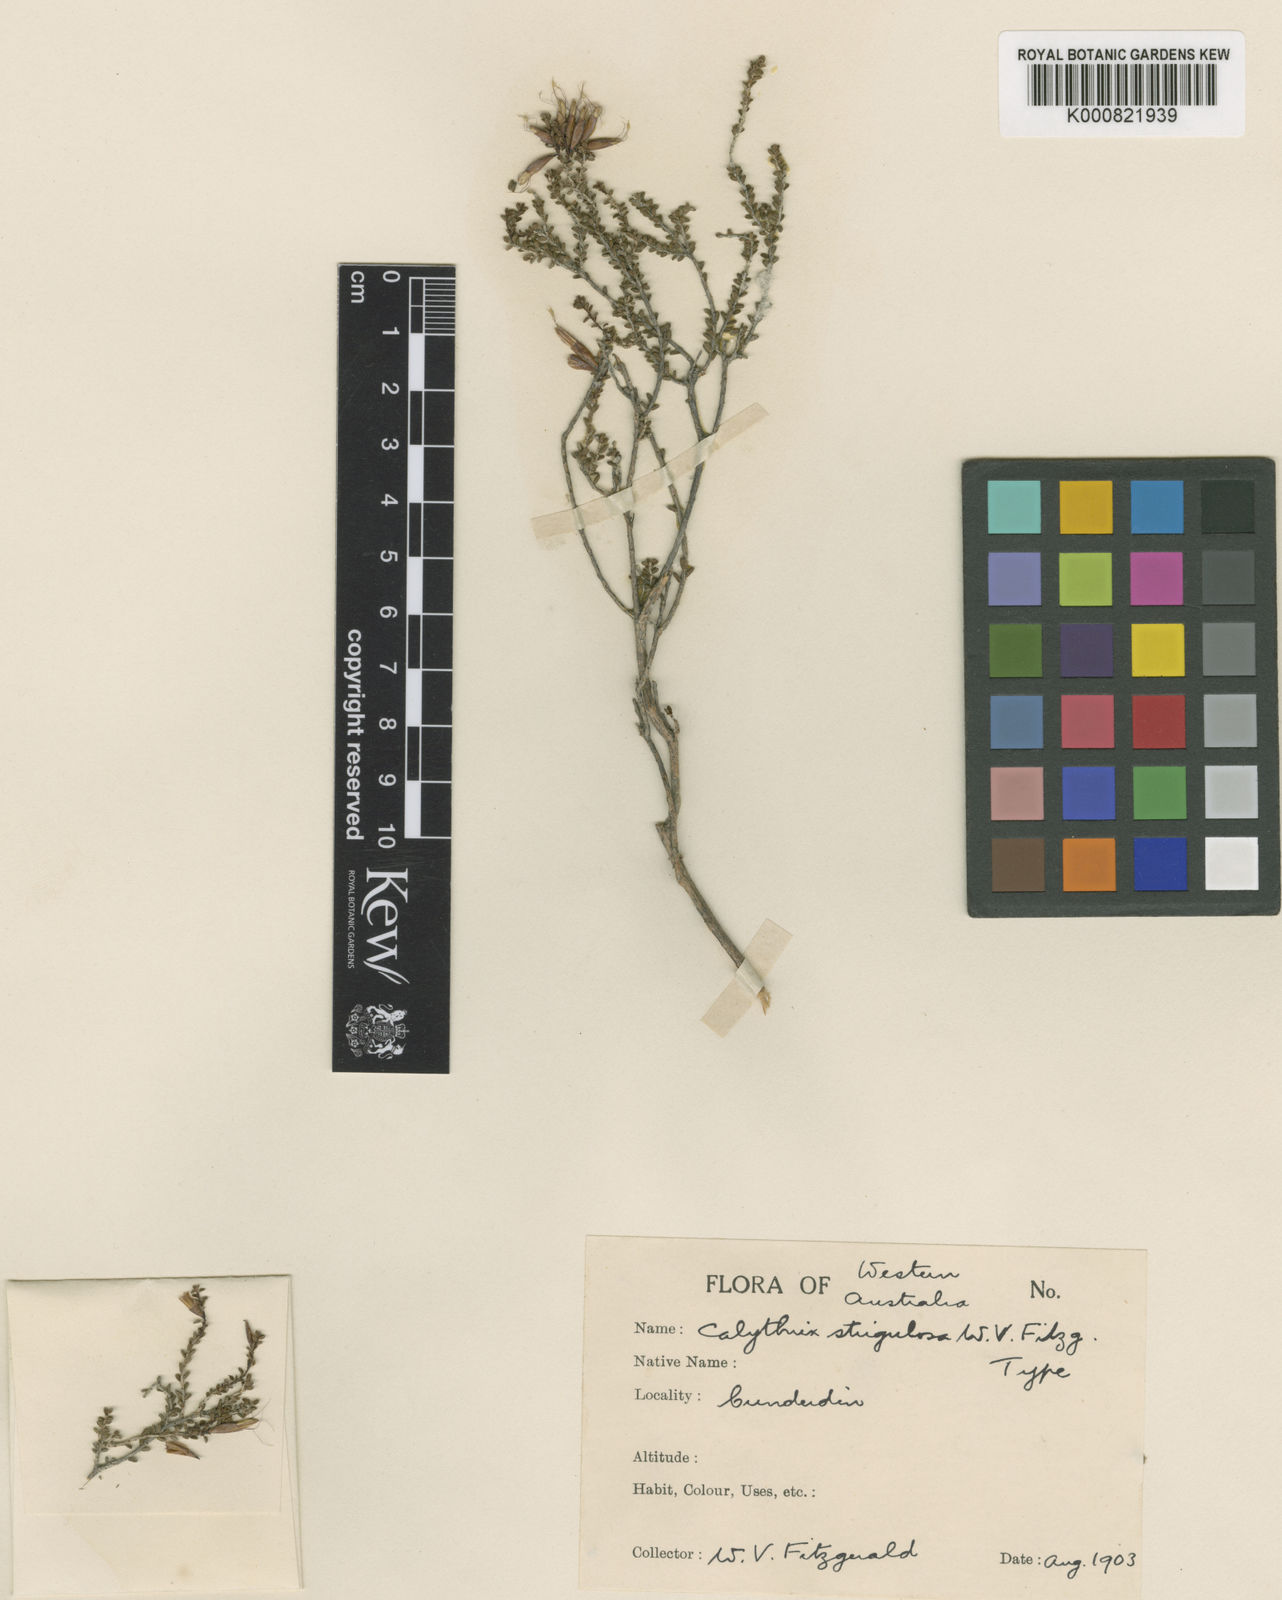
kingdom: Plantae
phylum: Tracheophyta
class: Magnoliopsida
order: Myrtales
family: Myrtaceae
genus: Calytrix
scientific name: Calytrix breviseta
